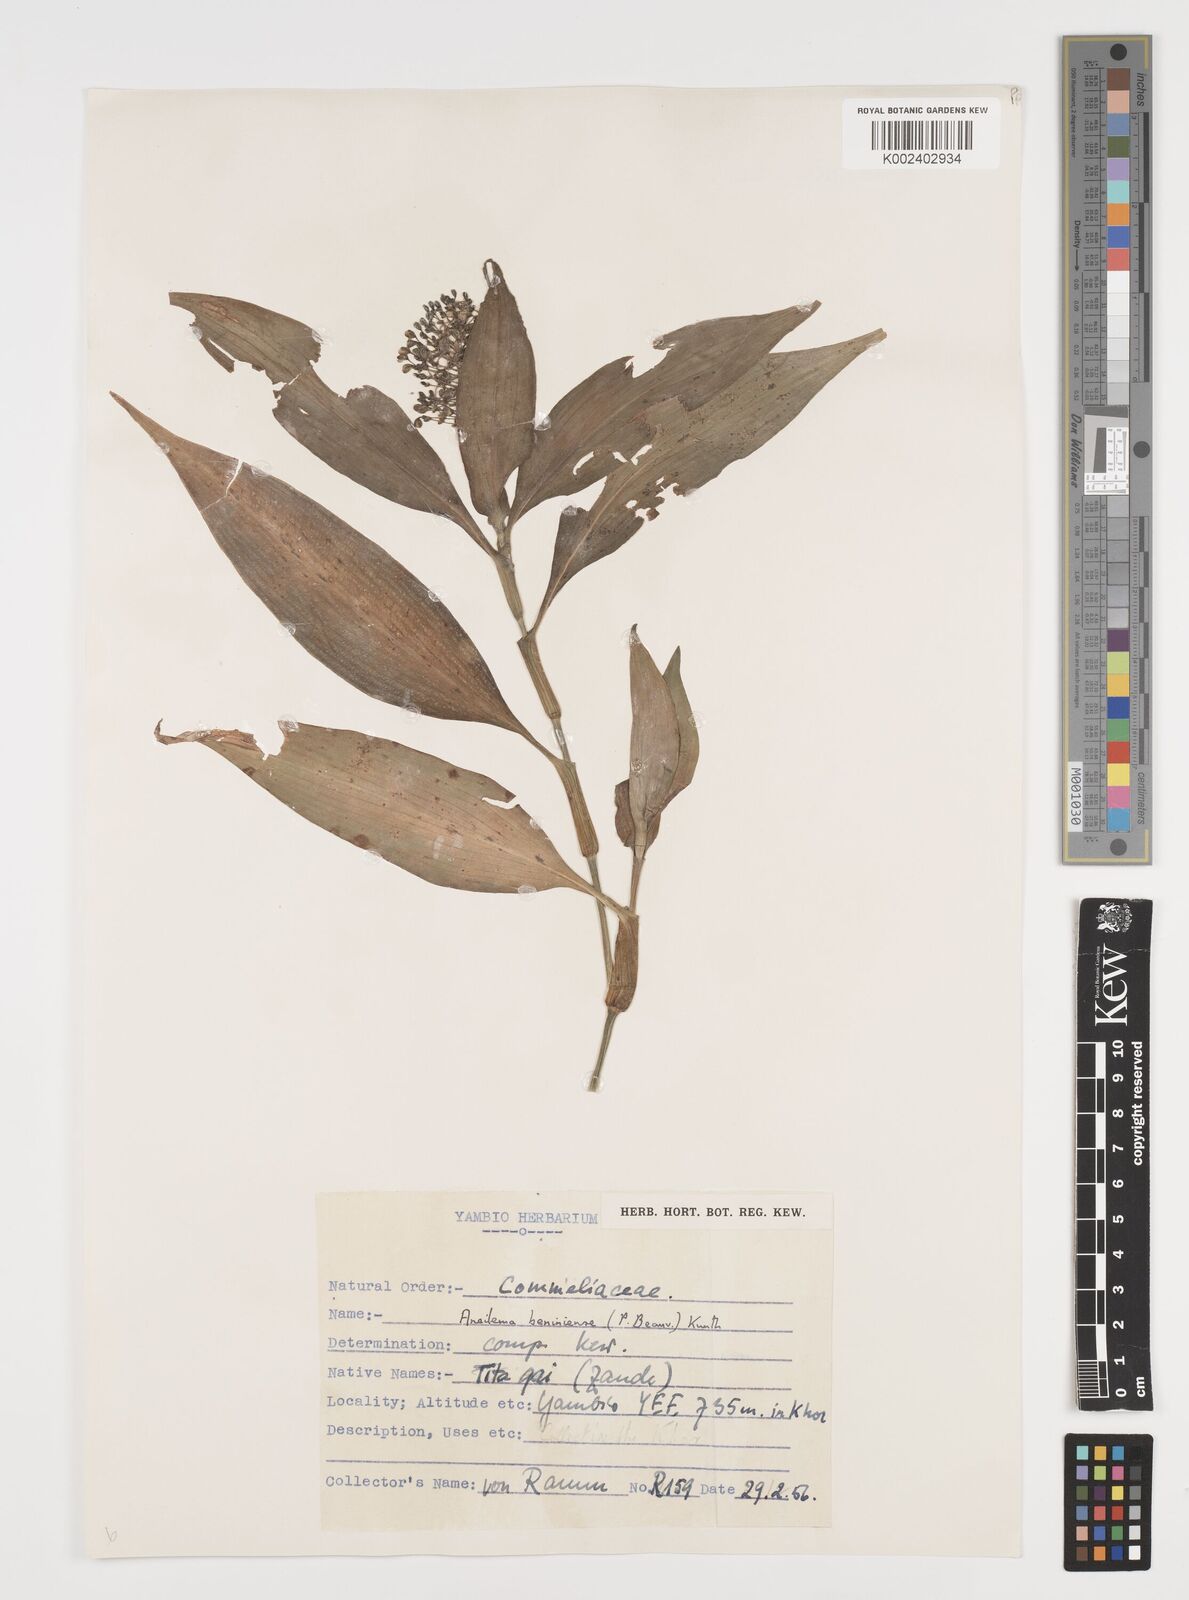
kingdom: Plantae
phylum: Tracheophyta
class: Liliopsida
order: Commelinales
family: Commelinaceae
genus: Aneilema
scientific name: Aneilema beniniense
